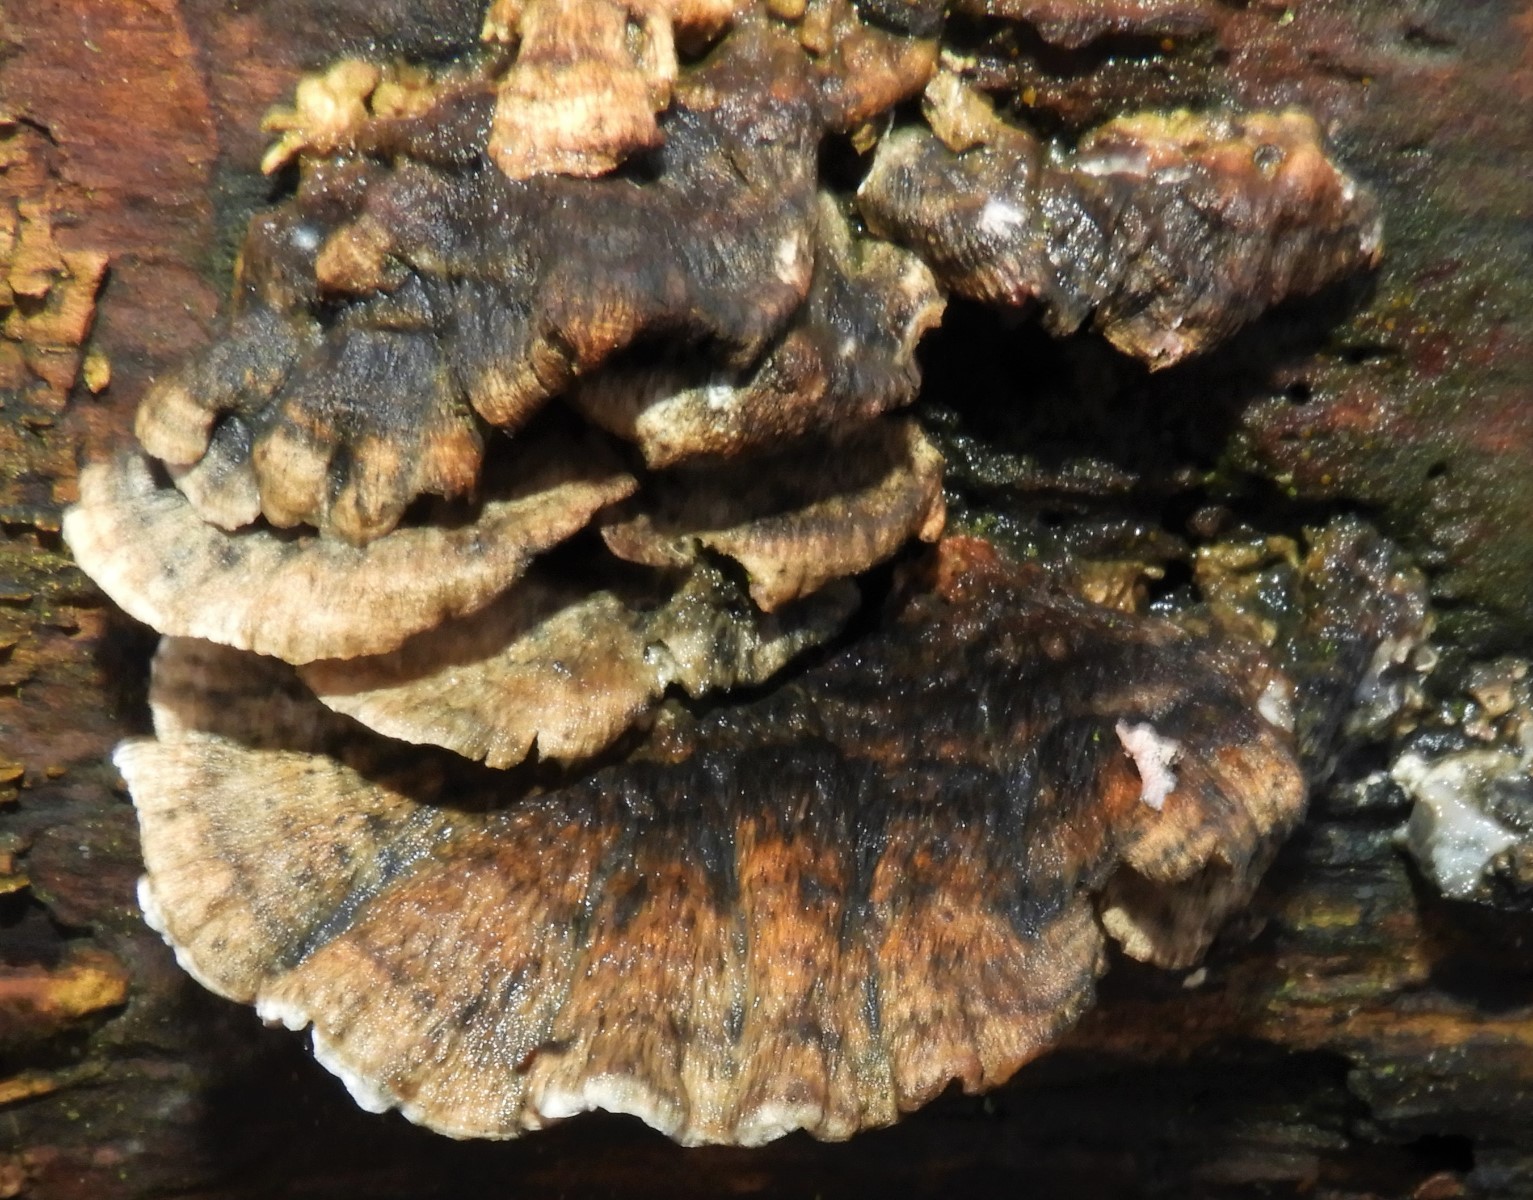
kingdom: Fungi
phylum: Basidiomycota
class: Agaricomycetes
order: Polyporales
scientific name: Polyporales
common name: poresvampordenen
